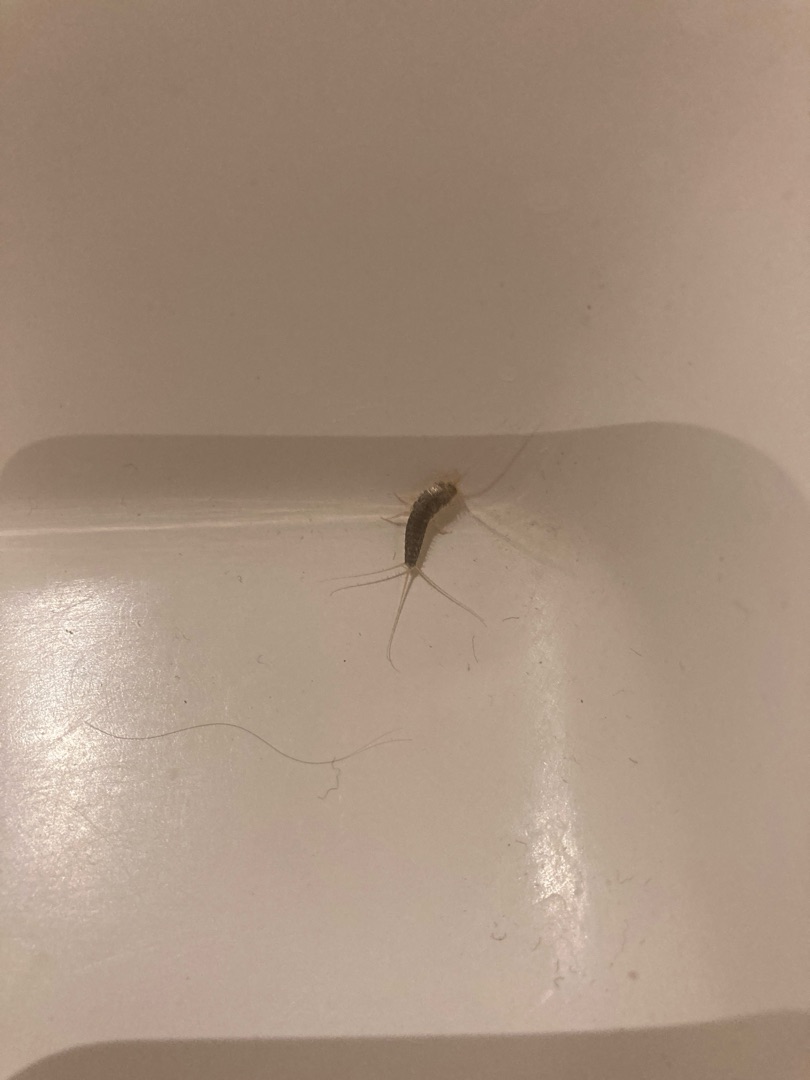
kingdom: Animalia
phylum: Arthropoda
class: Insecta
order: Zygentoma
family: Lepismatidae
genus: Ctenolepisma
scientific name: Ctenolepisma longicaudatum
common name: Skægget sølvkræ
